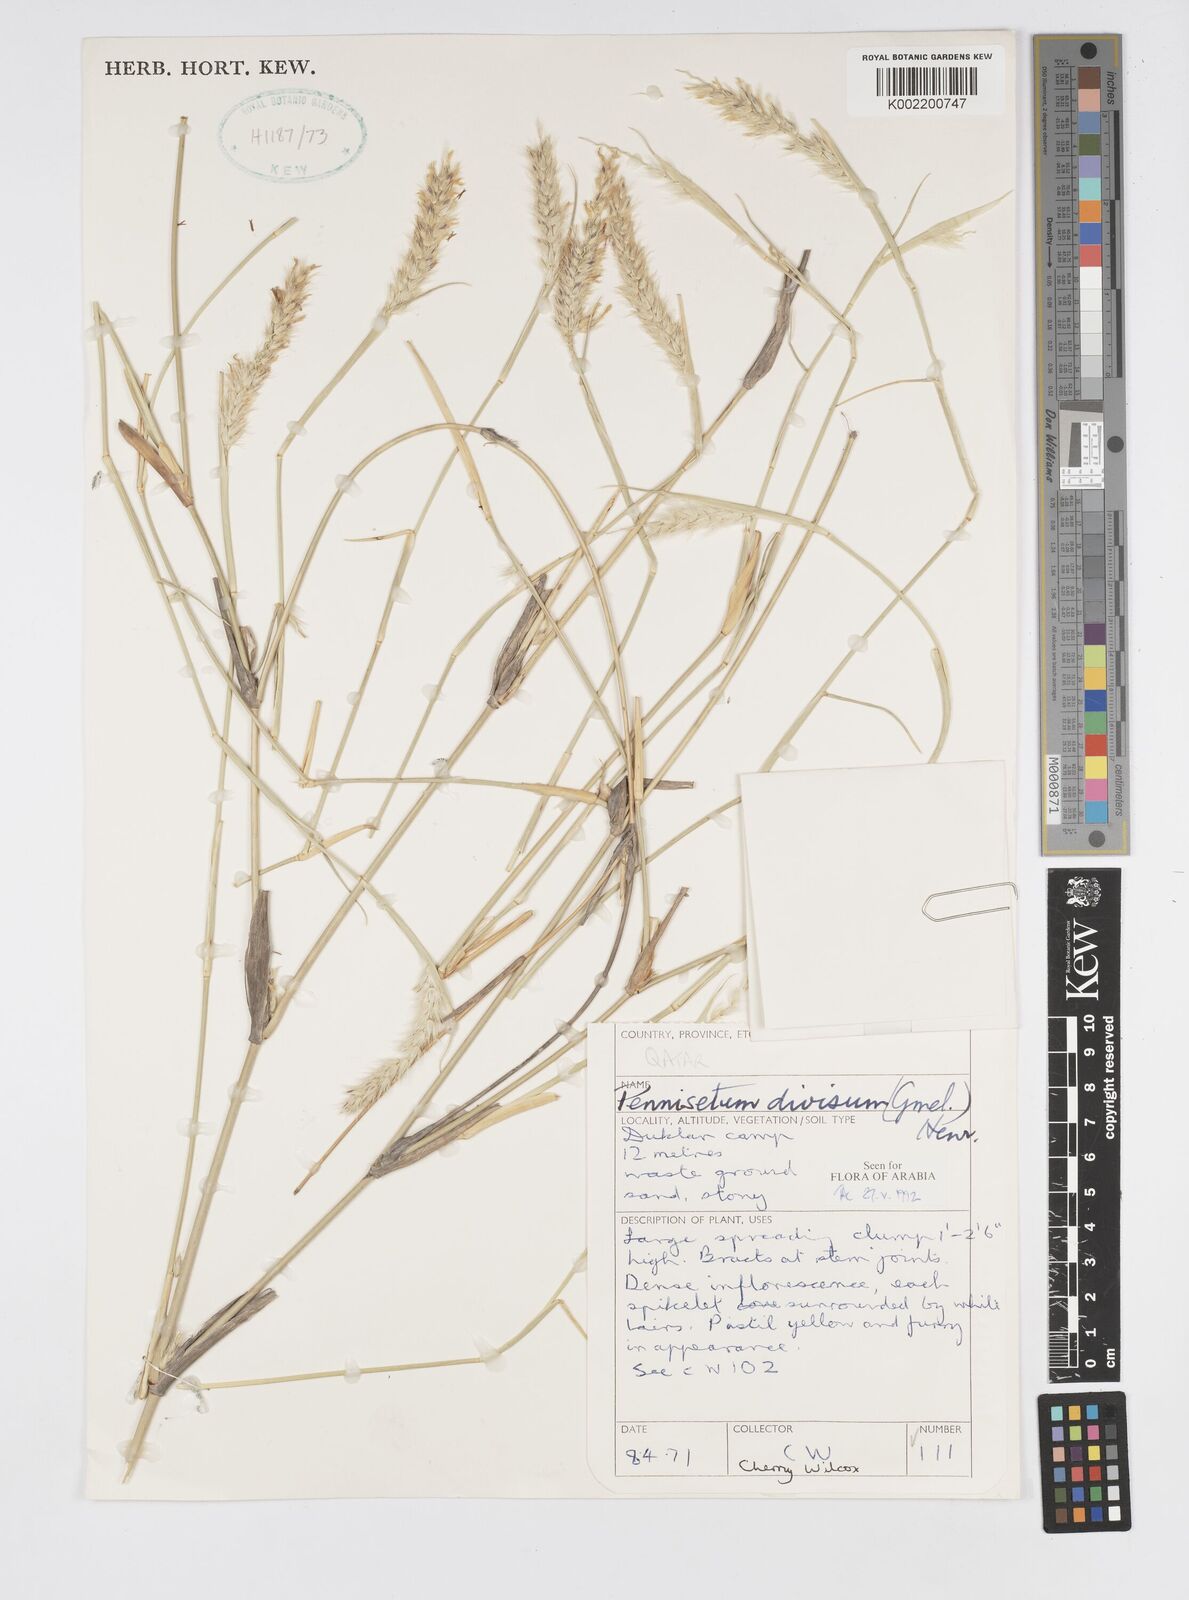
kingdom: Plantae
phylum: Tracheophyta
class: Liliopsida
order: Poales
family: Poaceae
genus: Cenchrus
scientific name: Cenchrus divisus
